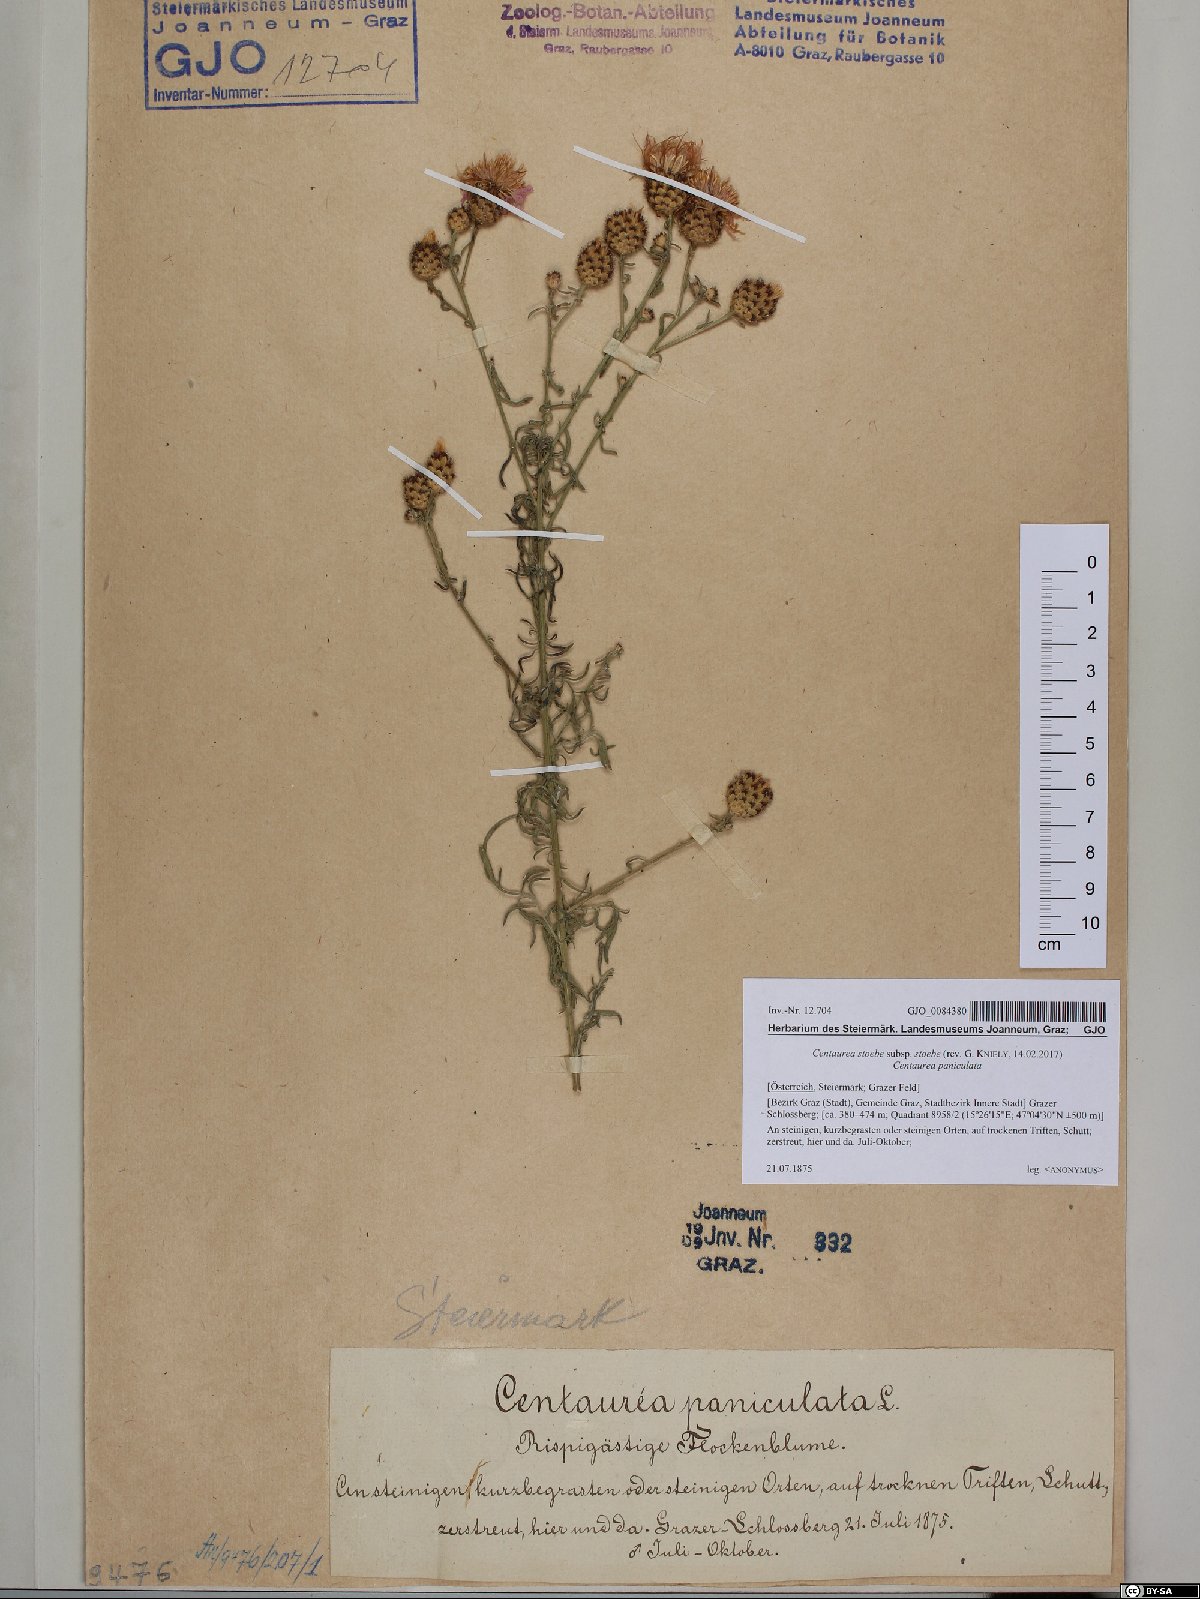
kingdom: Plantae
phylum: Tracheophyta
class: Magnoliopsida
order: Asterales
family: Asteraceae
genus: Centaurea
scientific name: Centaurea stoebe
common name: Spotted knapweed
